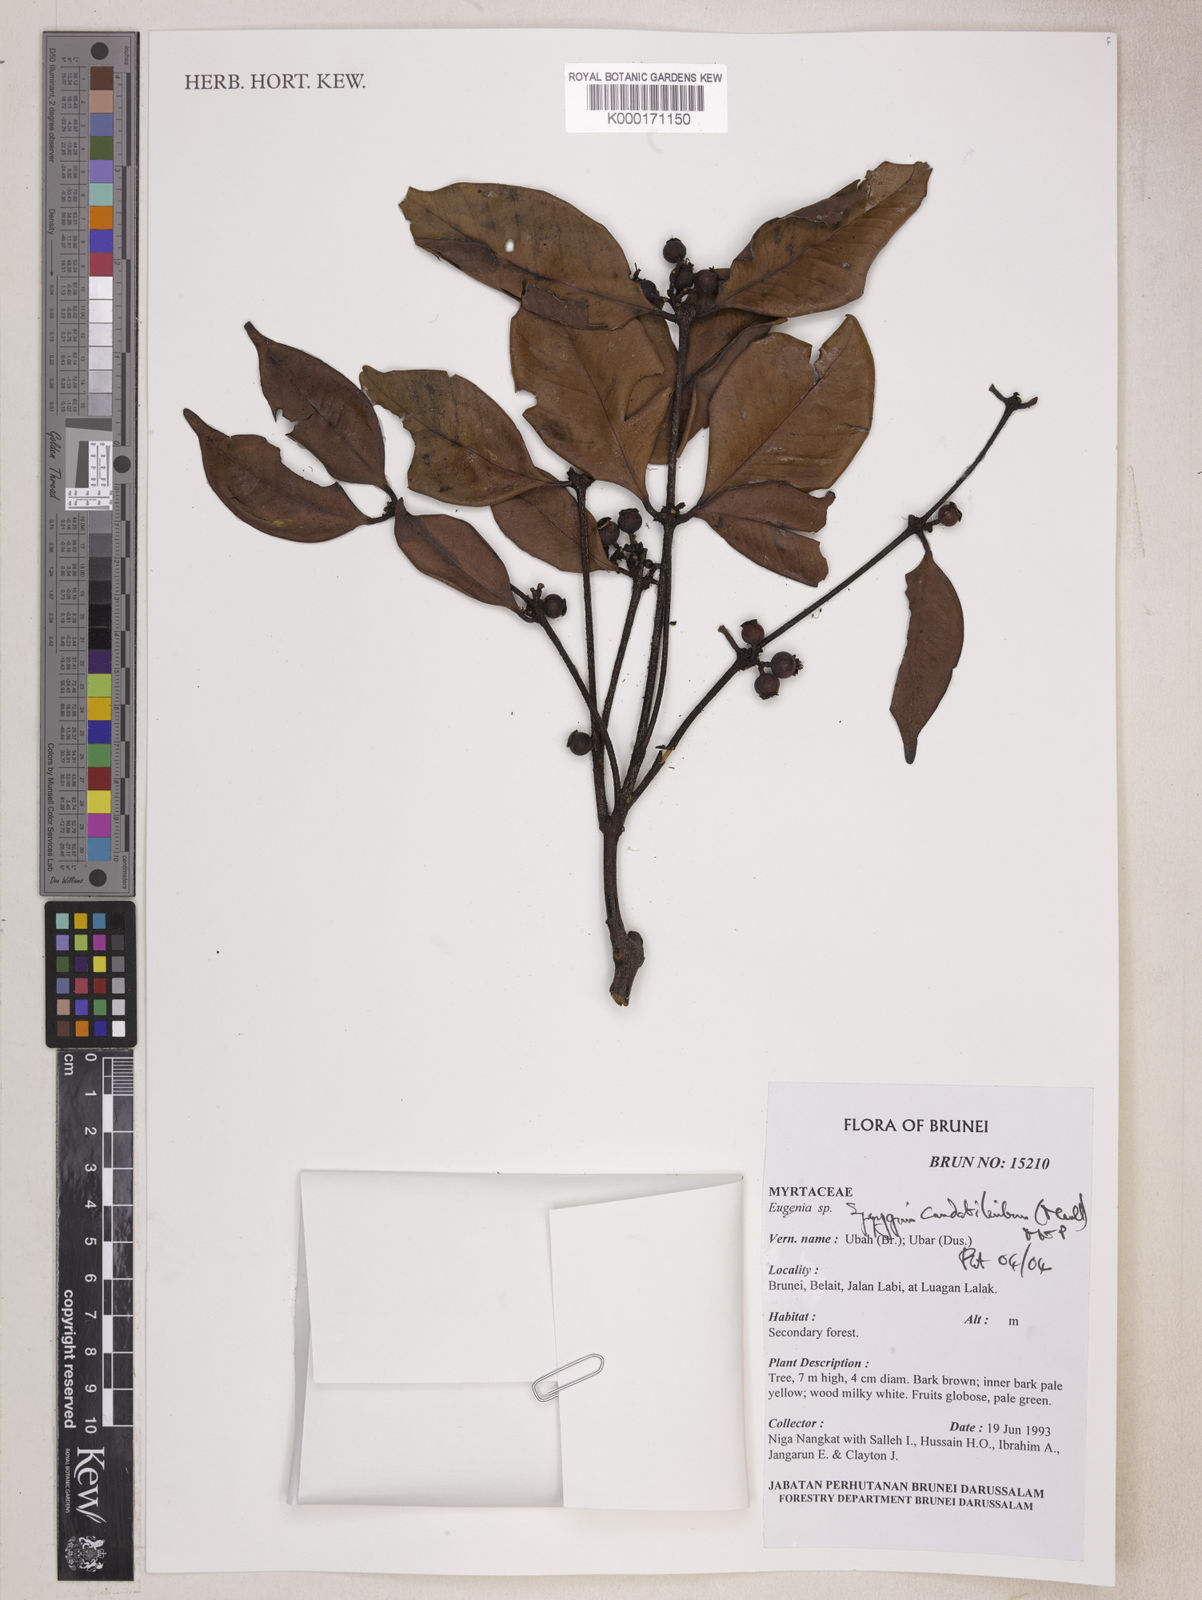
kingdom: Plantae
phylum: Tracheophyta
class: Magnoliopsida
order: Myrtales
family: Myrtaceae
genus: Syzygium
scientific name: Syzygium
